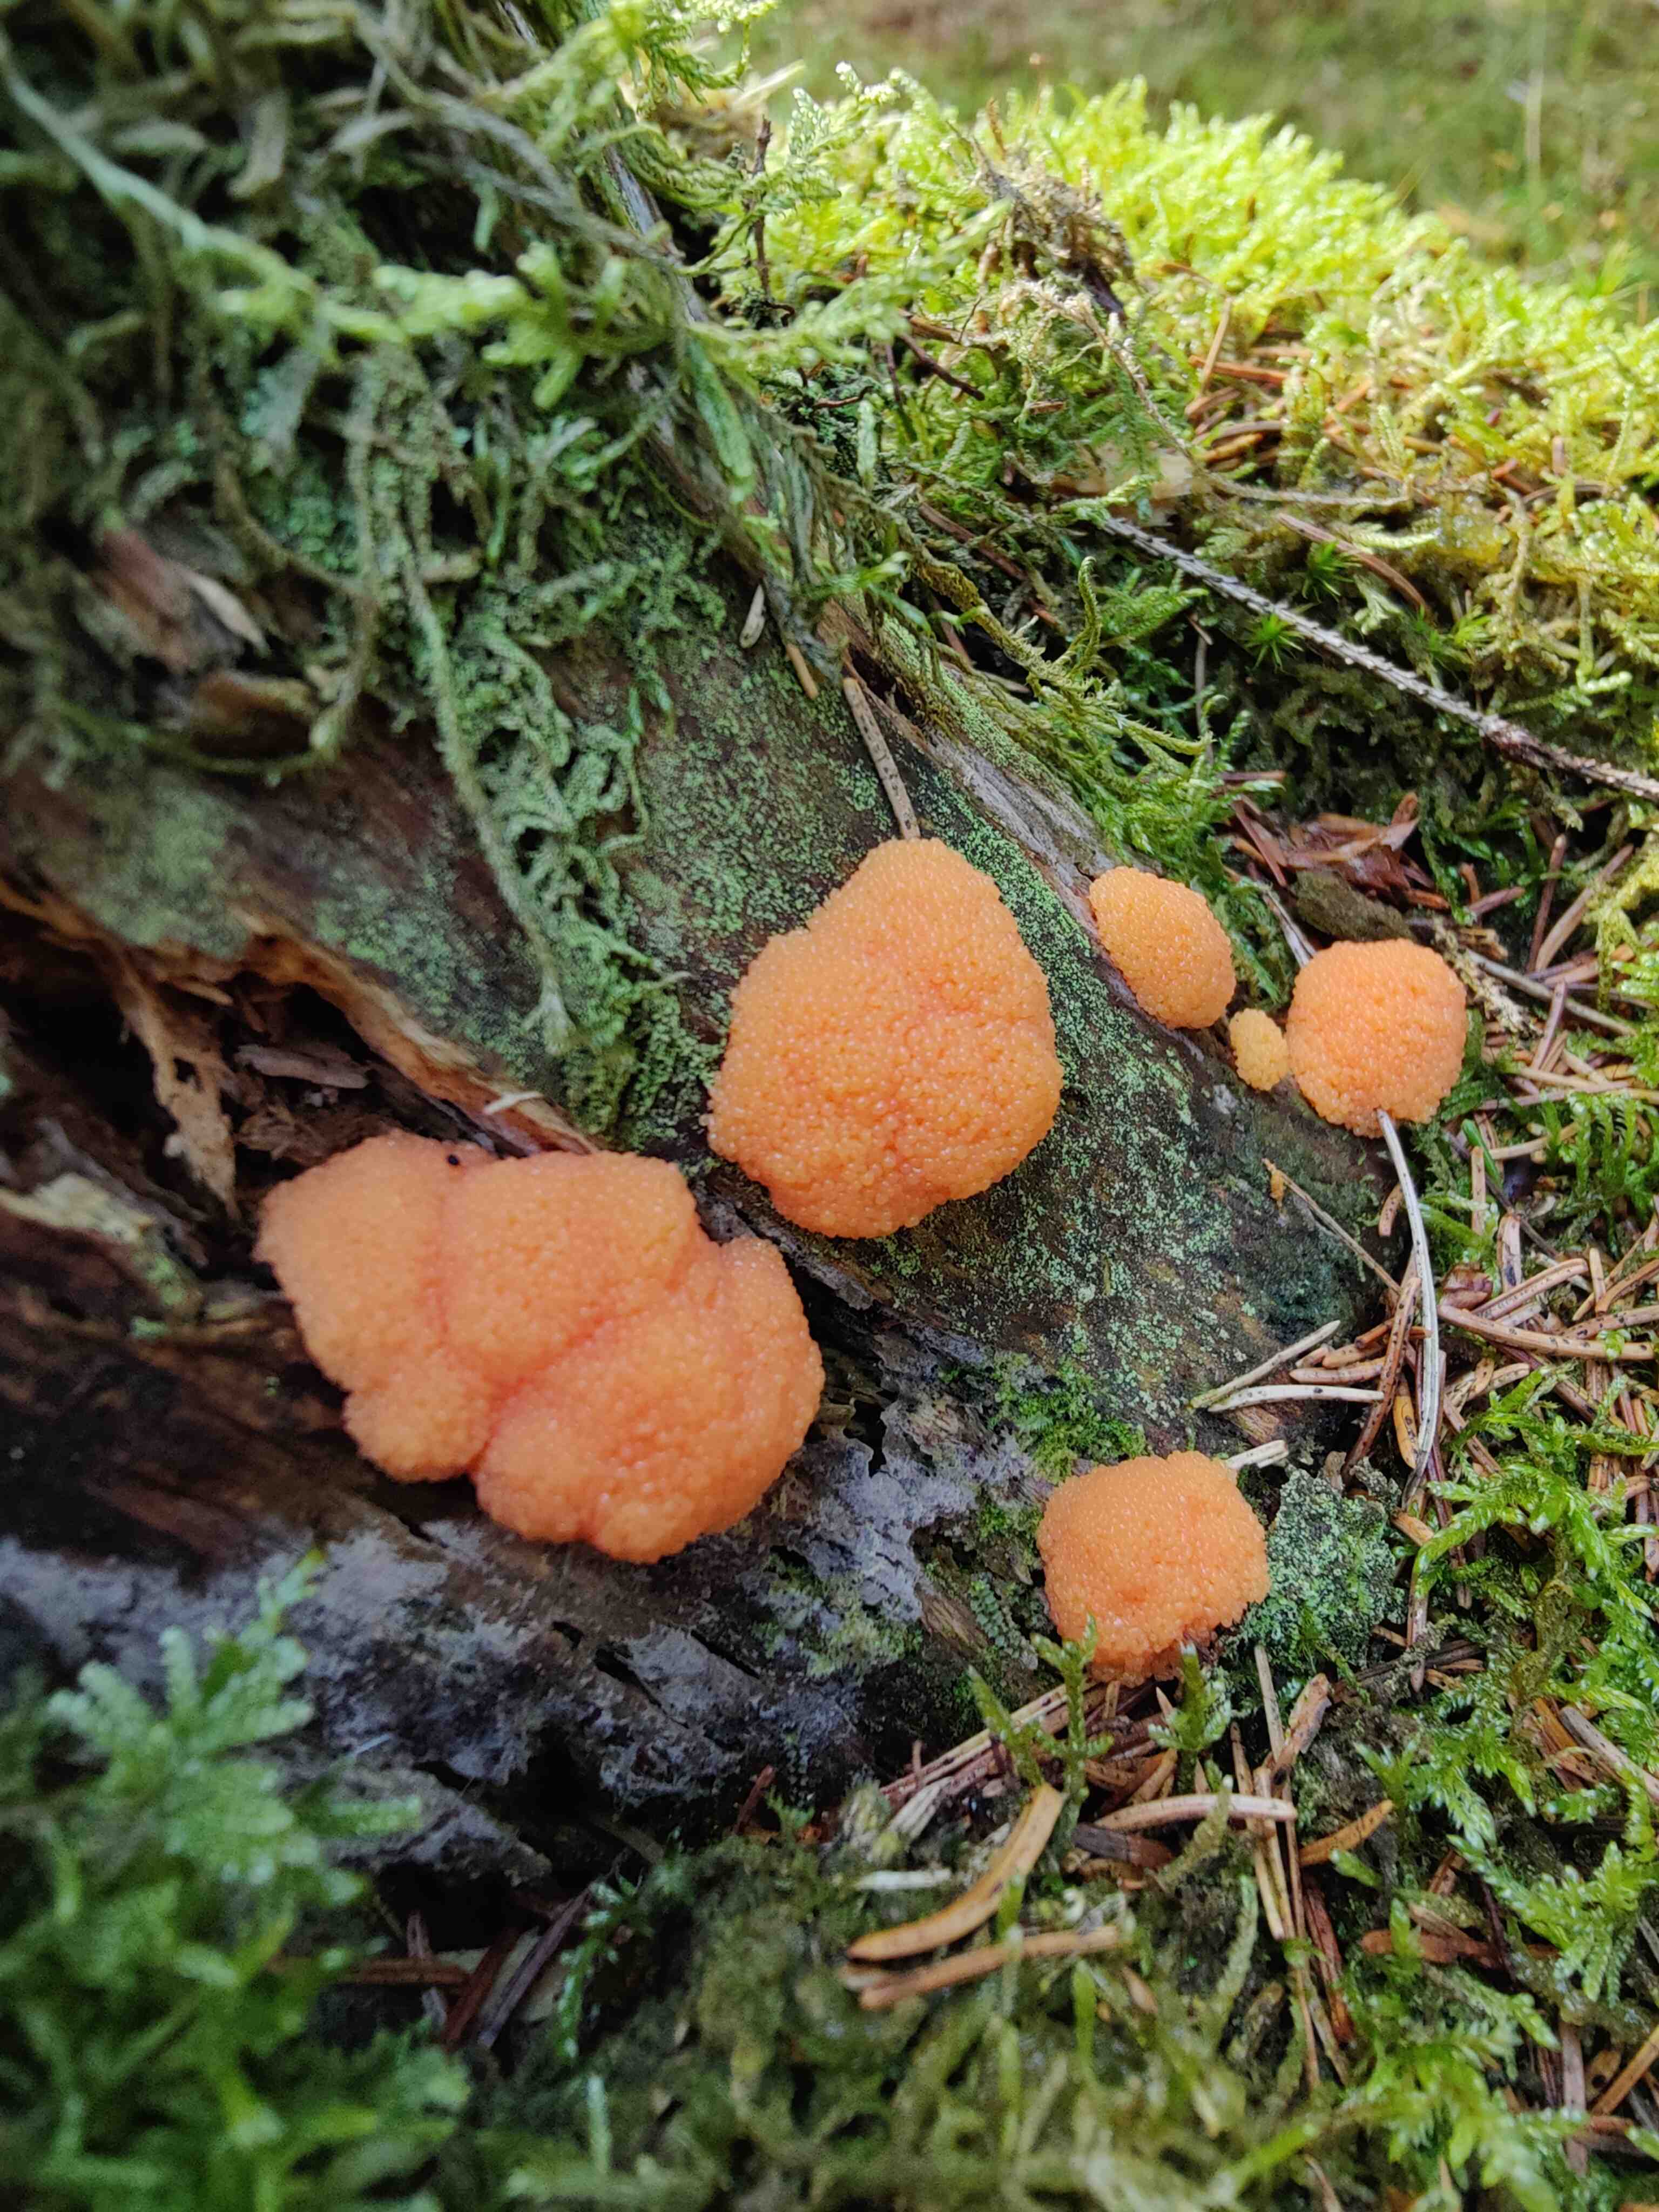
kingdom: Protozoa
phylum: Mycetozoa
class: Myxomycetes
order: Cribrariales
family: Tubiferaceae
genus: Tubifera
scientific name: Tubifera ferruginosa
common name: kanel-støvrør
